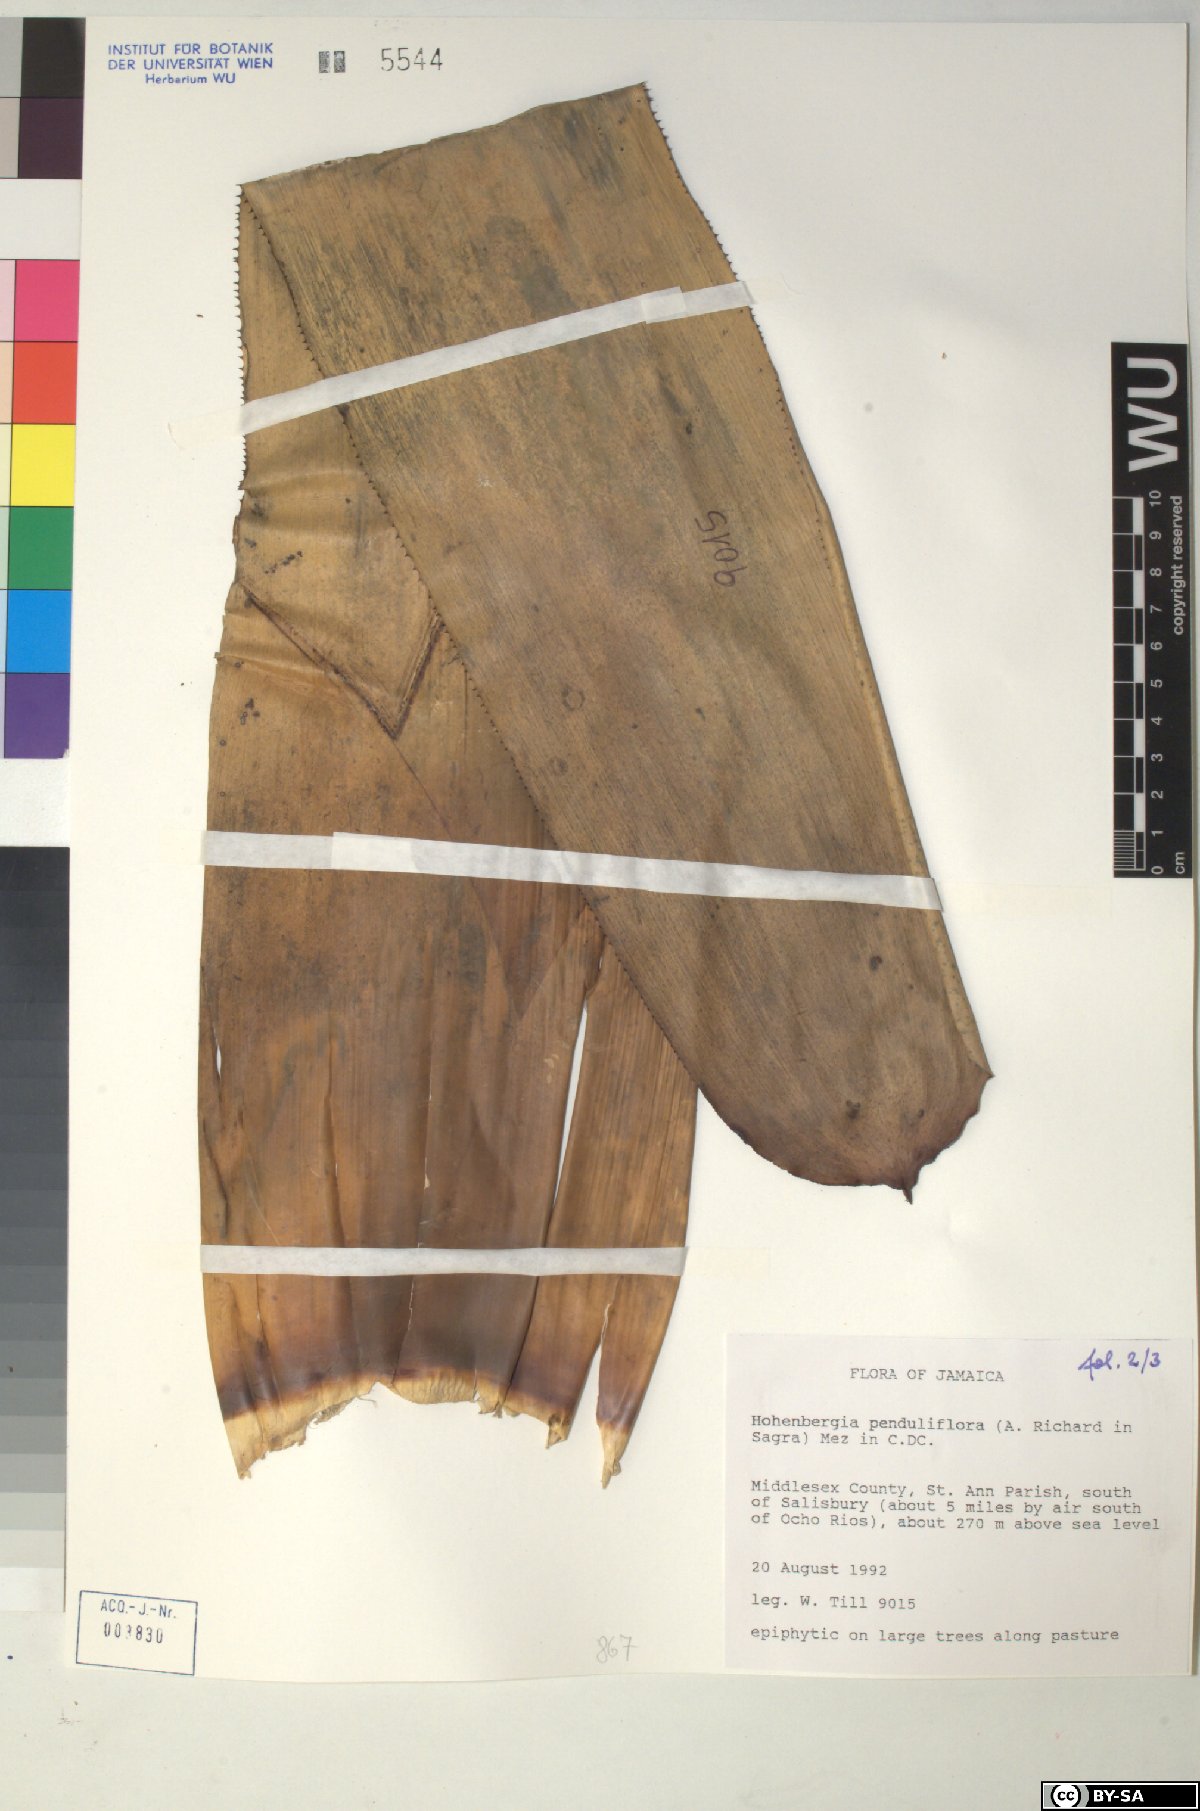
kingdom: Plantae
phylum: Tracheophyta
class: Liliopsida
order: Poales
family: Bromeliaceae
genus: Wittmackia
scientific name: Wittmackia penduliflora
